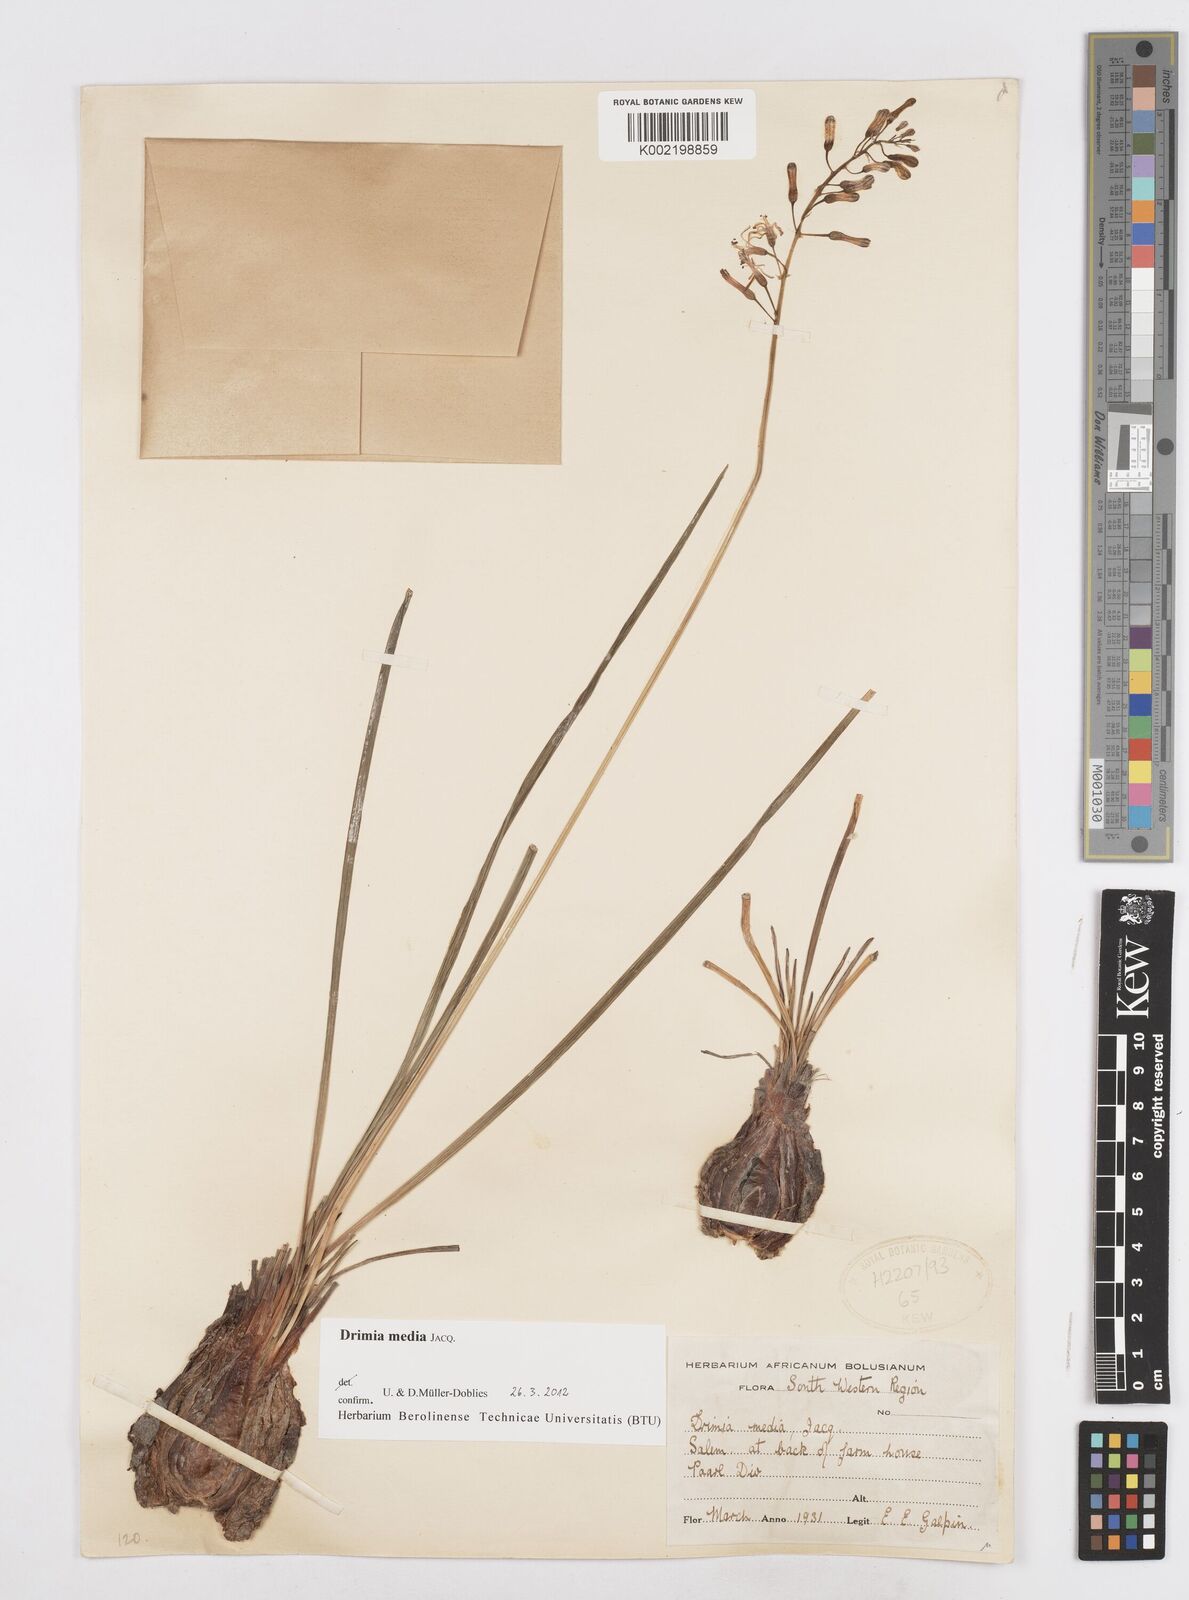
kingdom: Plantae
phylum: Tracheophyta
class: Liliopsida
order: Asparagales
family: Asparagaceae
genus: Drimia
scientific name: Drimia media
